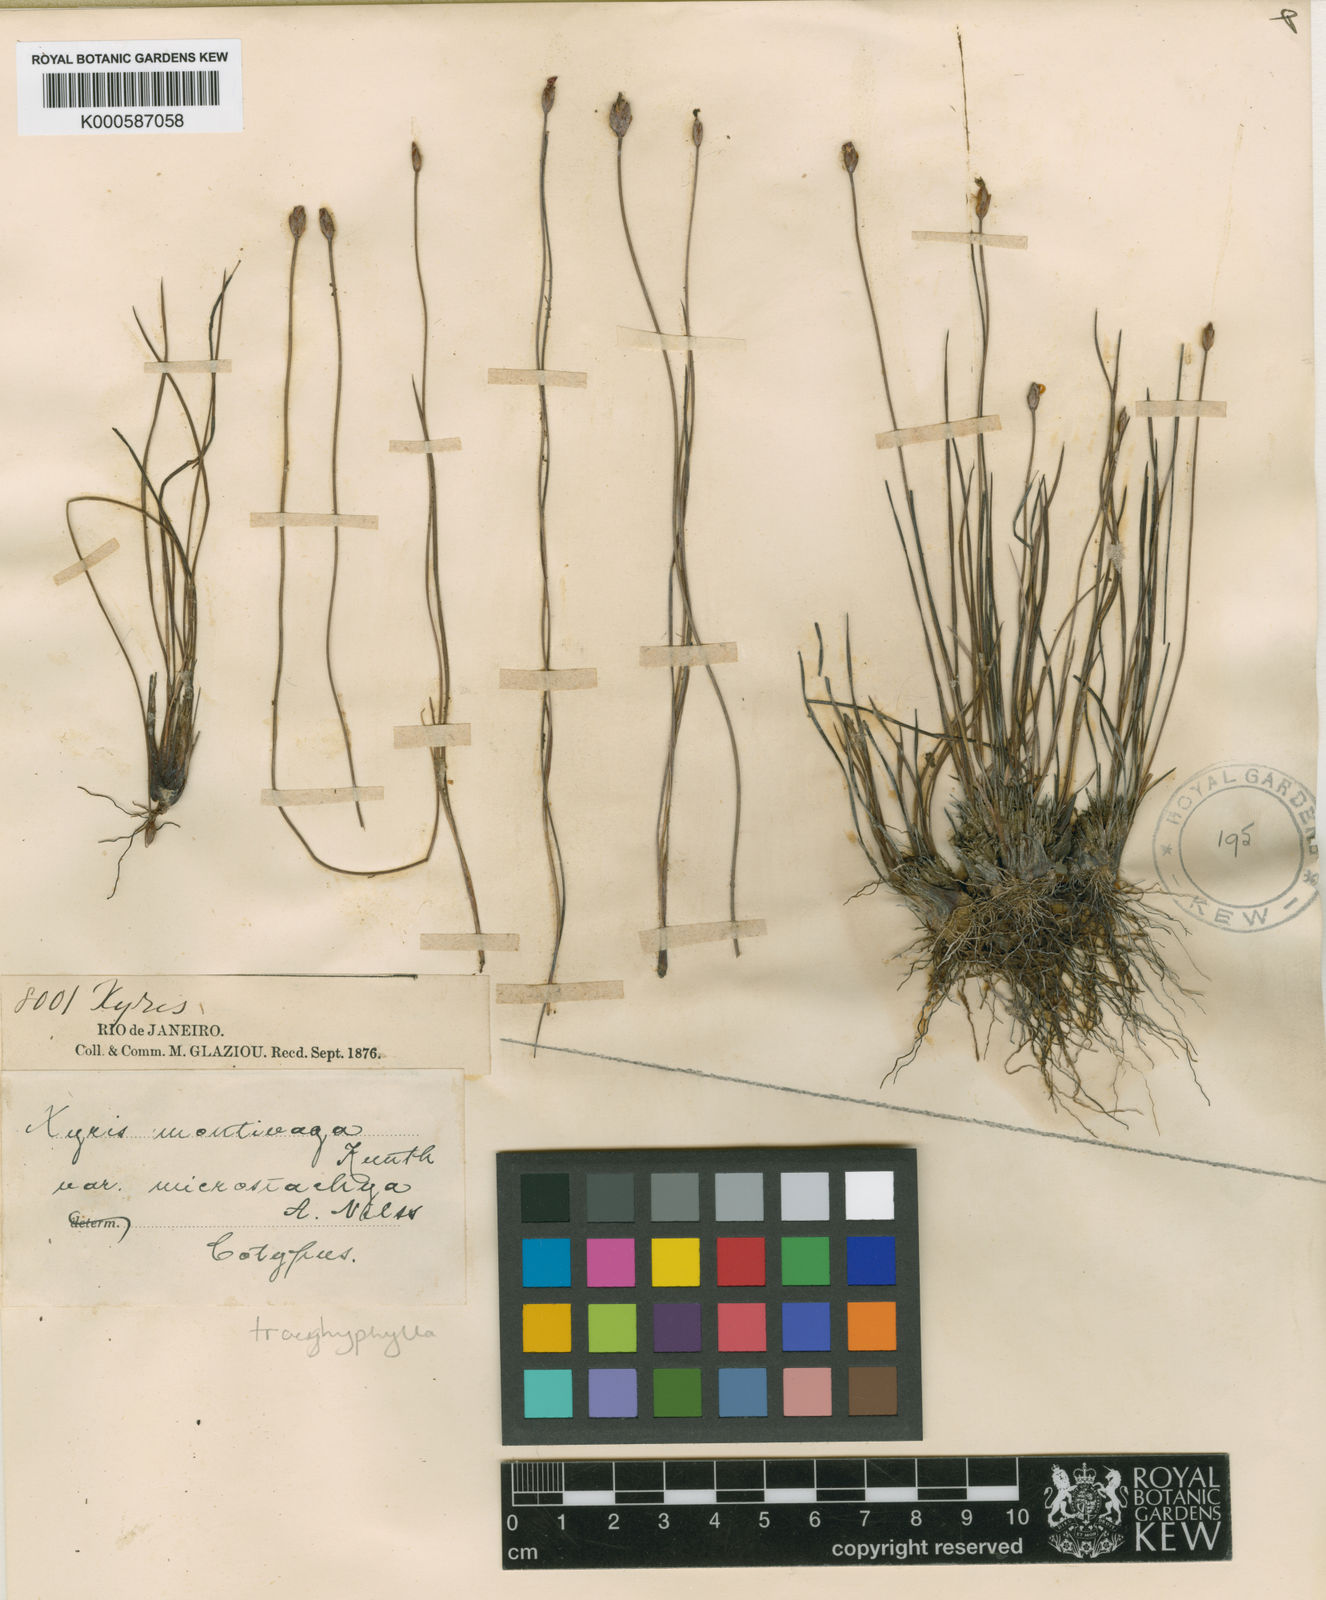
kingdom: Plantae
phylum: Tracheophyta
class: Liliopsida
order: Poales
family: Xyridaceae
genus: Xyris
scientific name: Xyris trachyphylla
